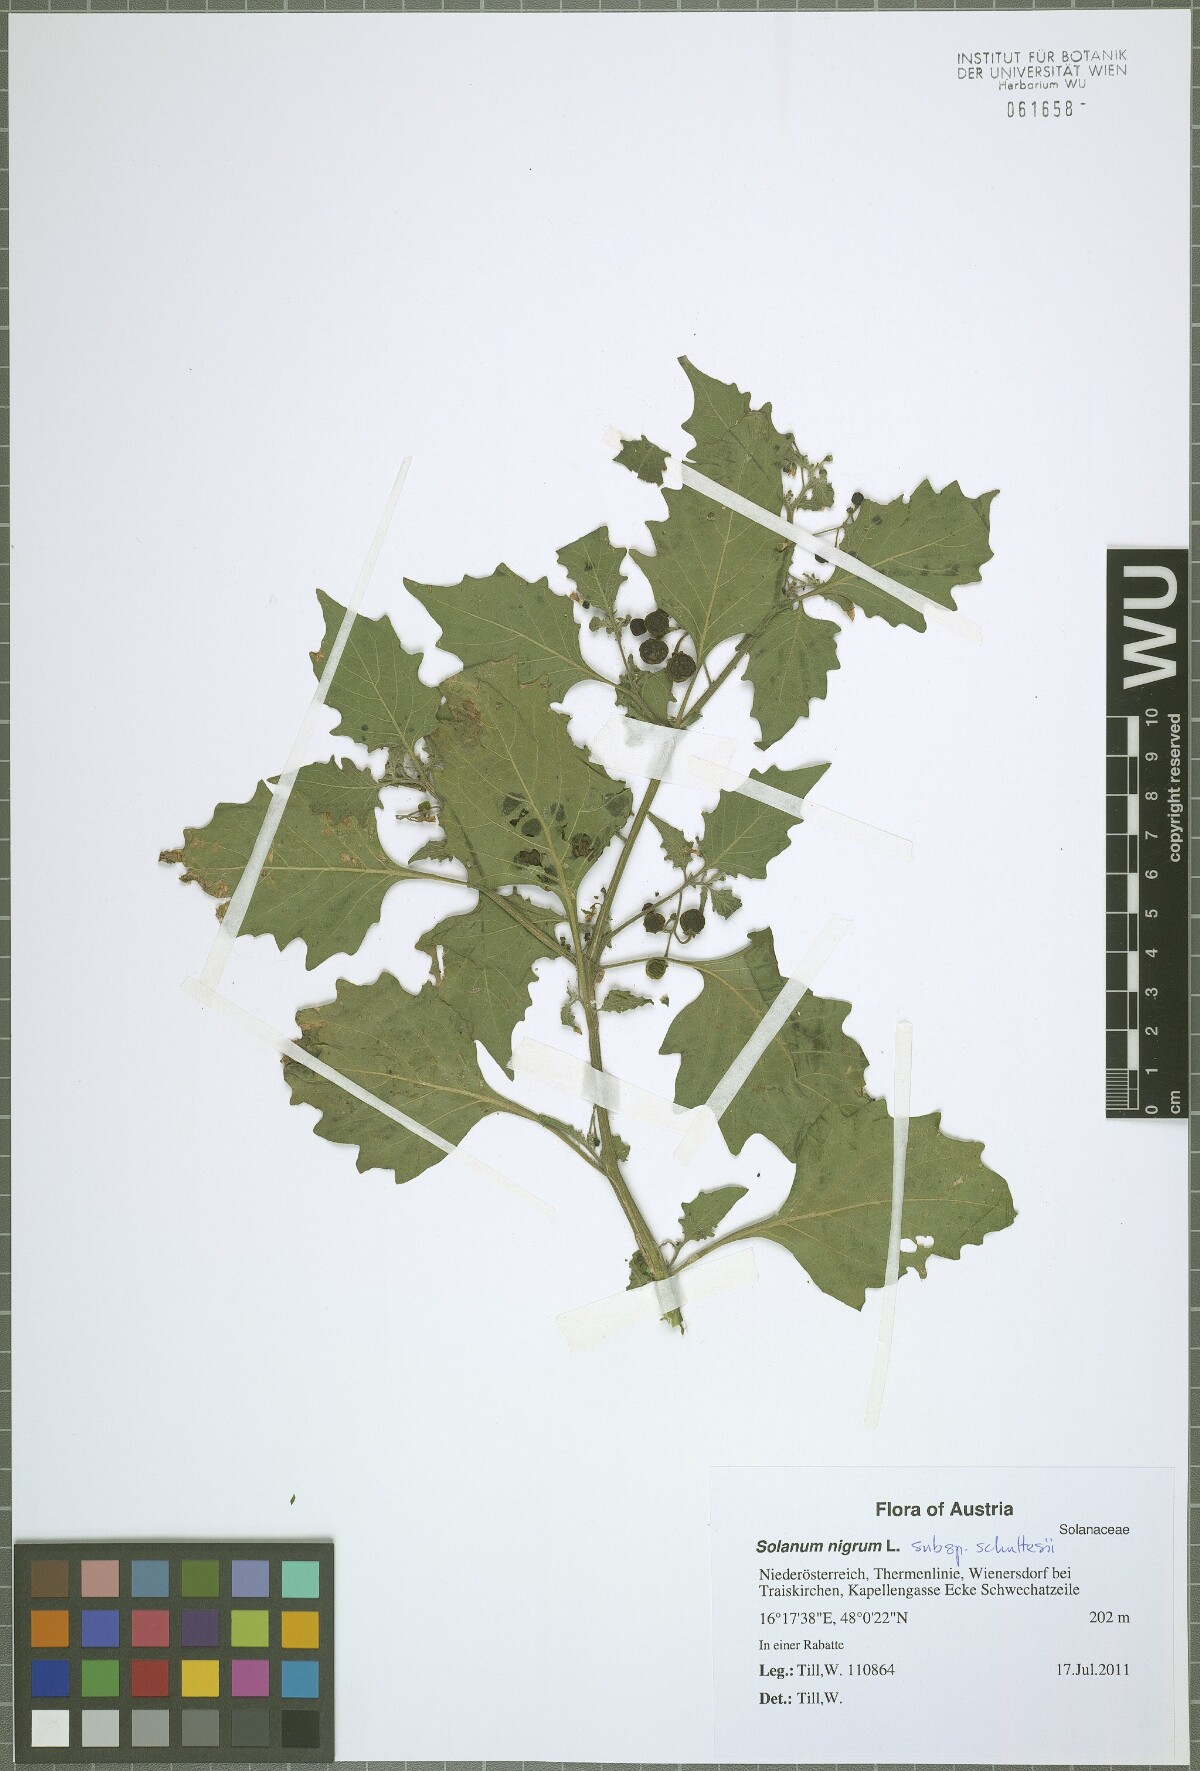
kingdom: Plantae
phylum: Tracheophyta
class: Magnoliopsida
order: Solanales
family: Solanaceae
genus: Solanum
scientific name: Solanum decipiens
